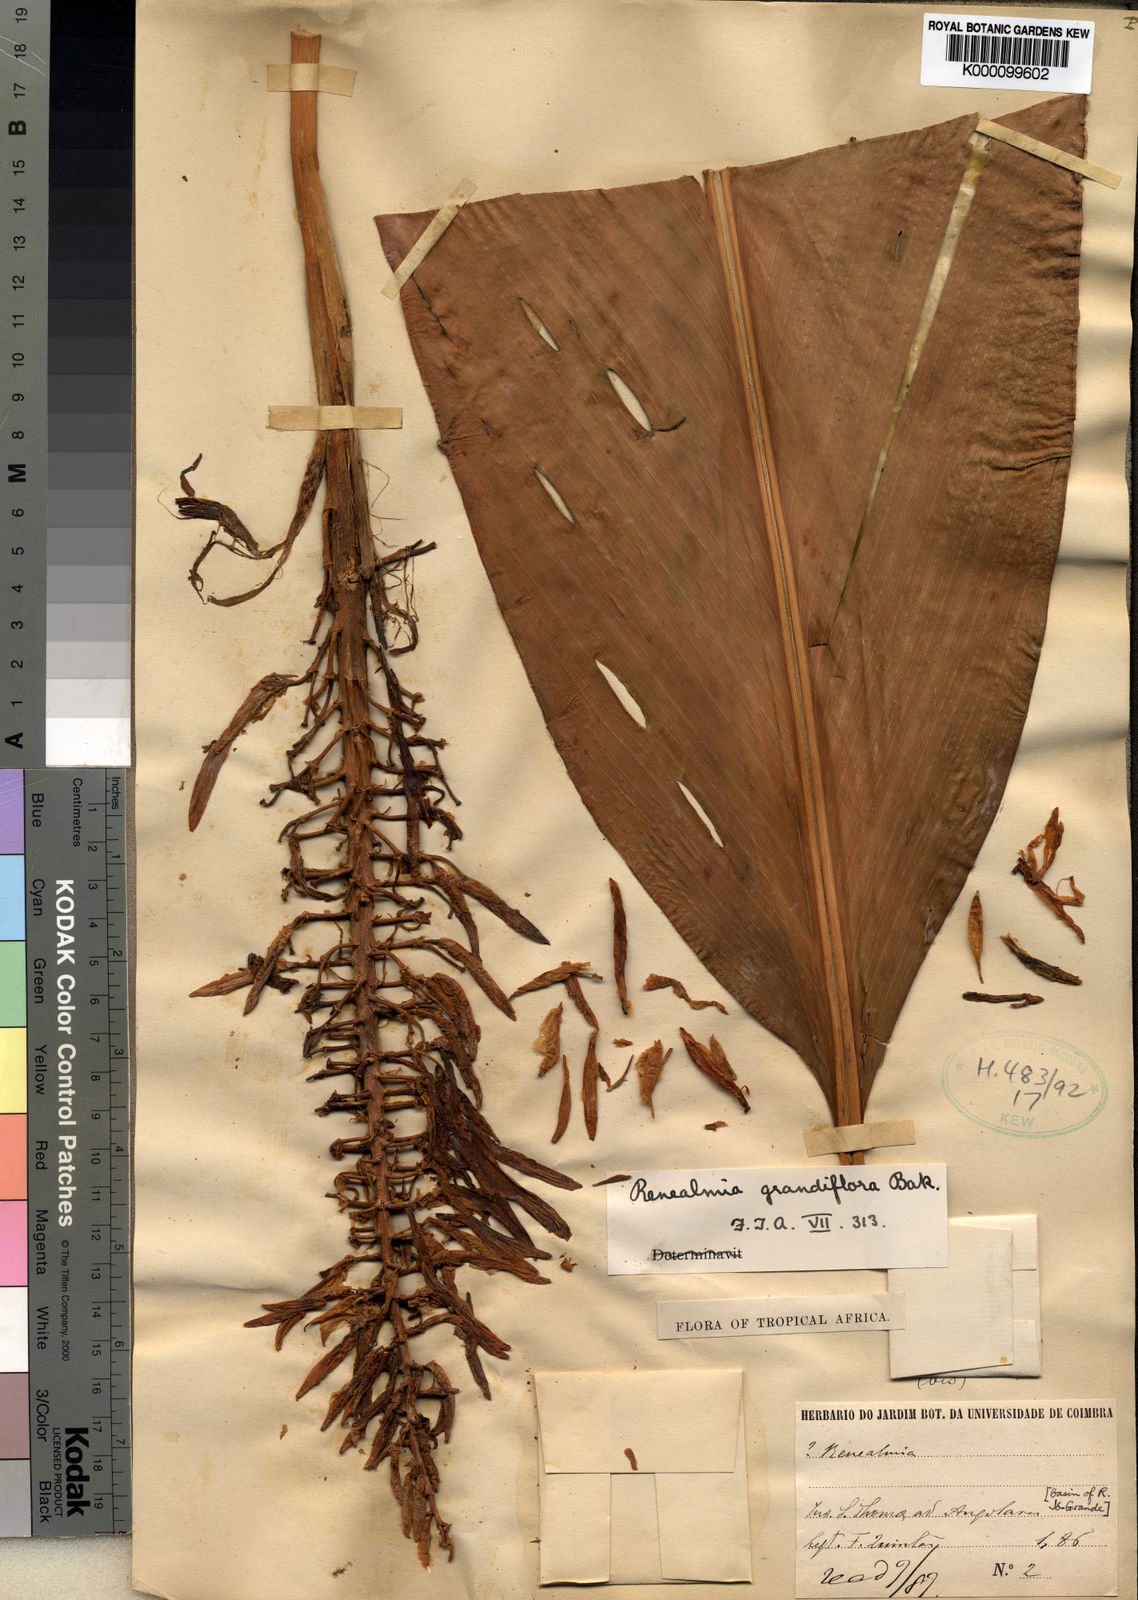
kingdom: Plantae
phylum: Tracheophyta
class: Liliopsida
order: Zingiberales
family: Zingiberaceae
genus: Renealmia
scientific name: Renealmia sancti-thomae
